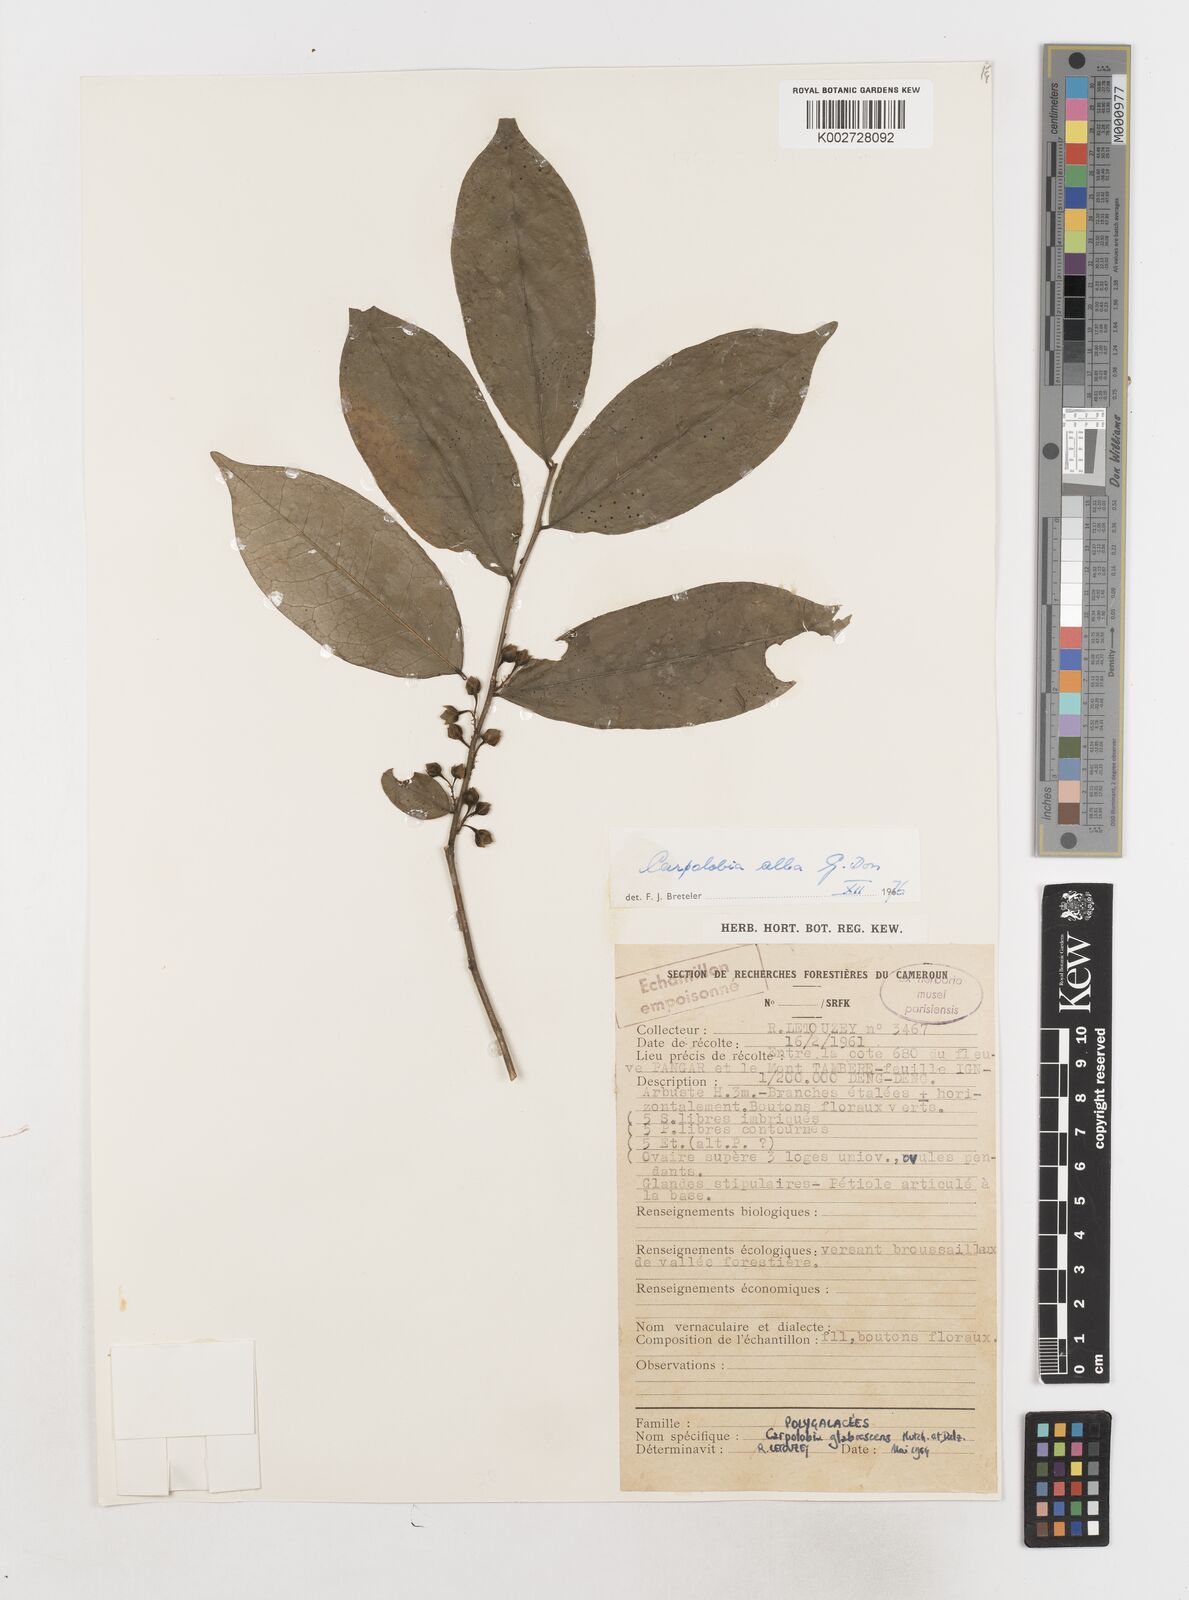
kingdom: Plantae
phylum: Tracheophyta
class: Magnoliopsida
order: Fabales
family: Polygalaceae
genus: Carpolobia
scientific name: Carpolobia alba
